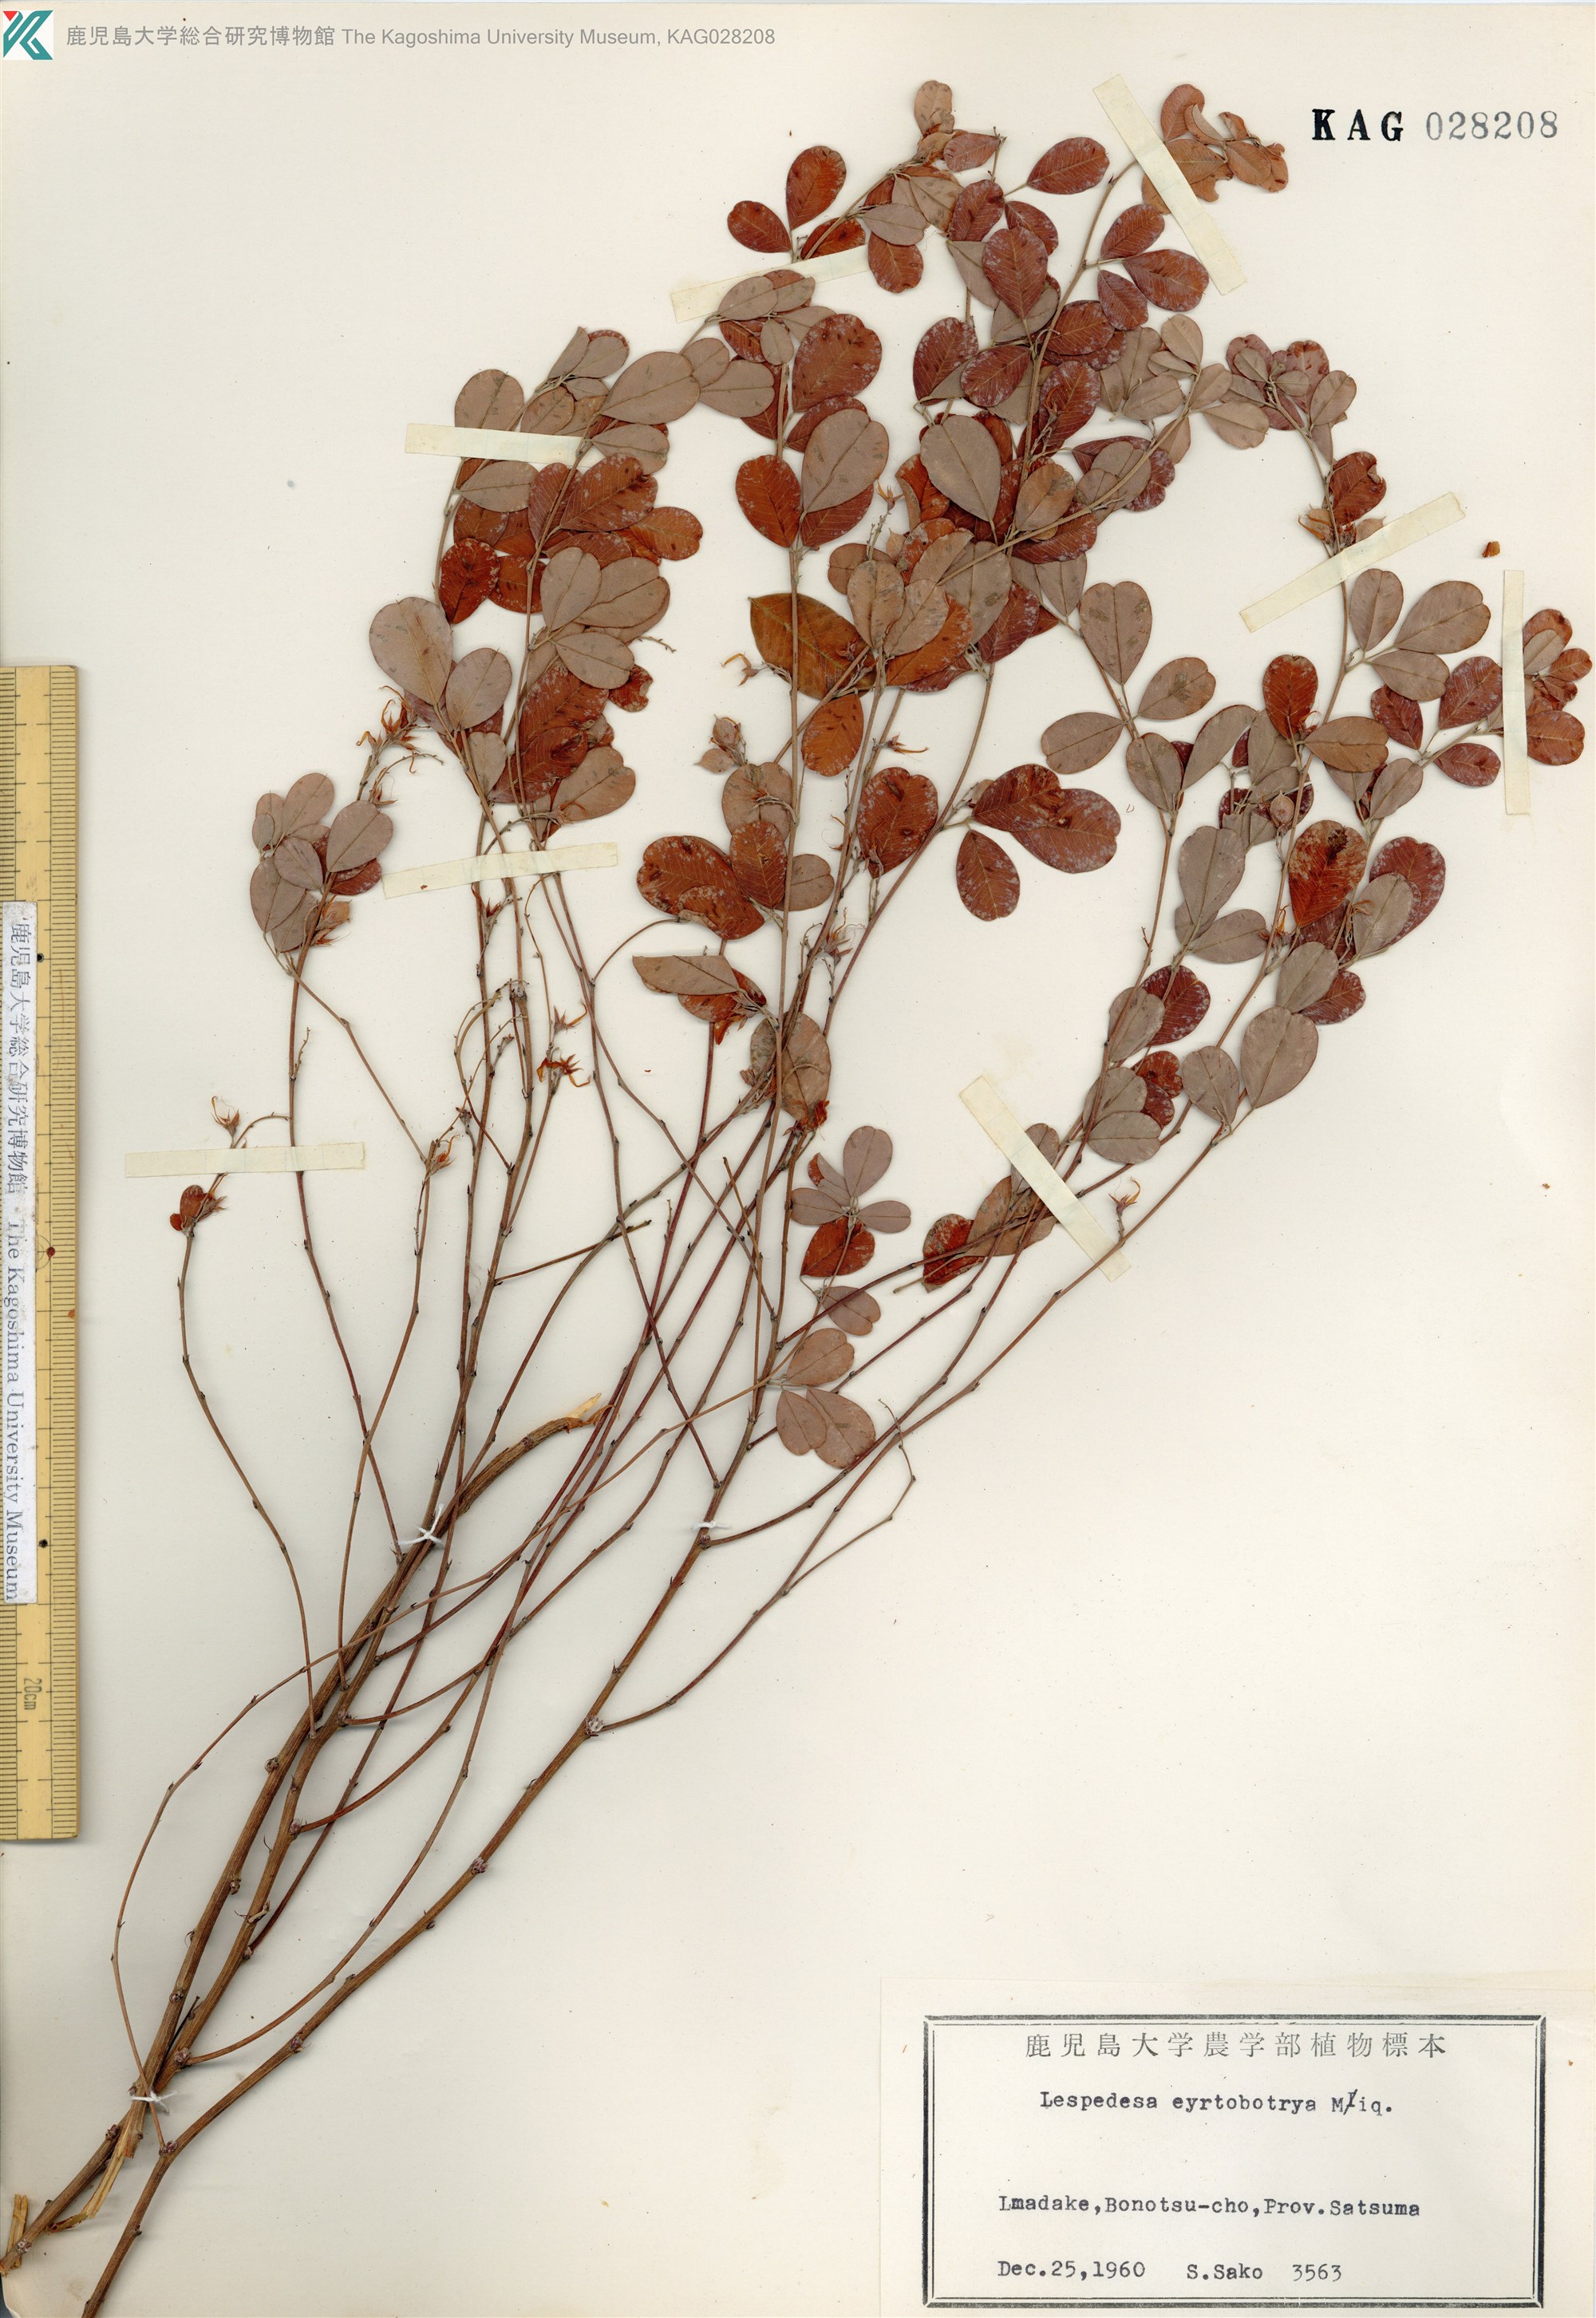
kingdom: Plantae
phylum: Tracheophyta
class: Magnoliopsida
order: Fabales
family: Fabaceae
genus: Lespedeza
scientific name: Lespedeza cyrtobotrya
